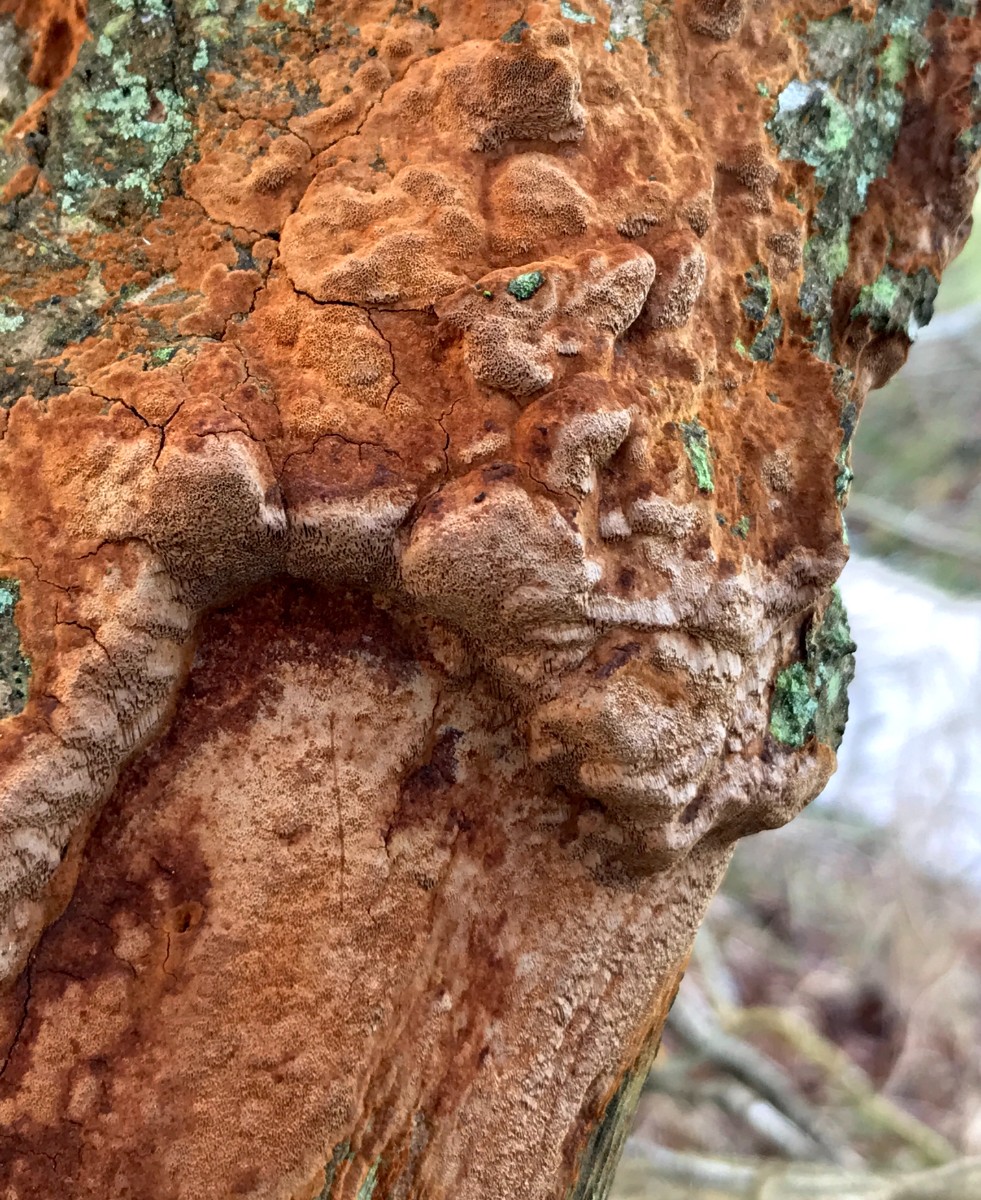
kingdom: Fungi
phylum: Basidiomycota
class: Agaricomycetes
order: Hymenochaetales
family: Hymenochaetaceae
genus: Fuscoporia
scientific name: Fuscoporia ferrea
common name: skorpe-ildporesvamp
